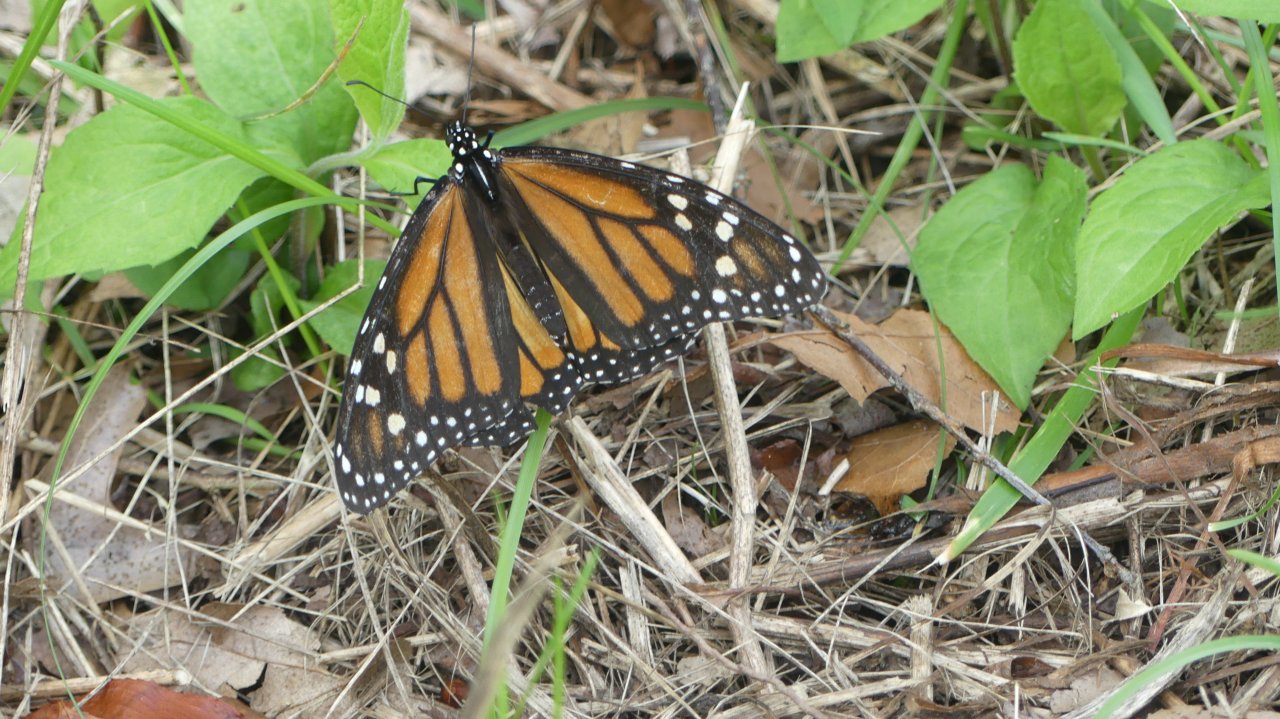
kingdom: Animalia
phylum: Arthropoda
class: Insecta
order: Lepidoptera
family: Nymphalidae
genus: Danaus
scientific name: Danaus plexippus
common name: Monarch
